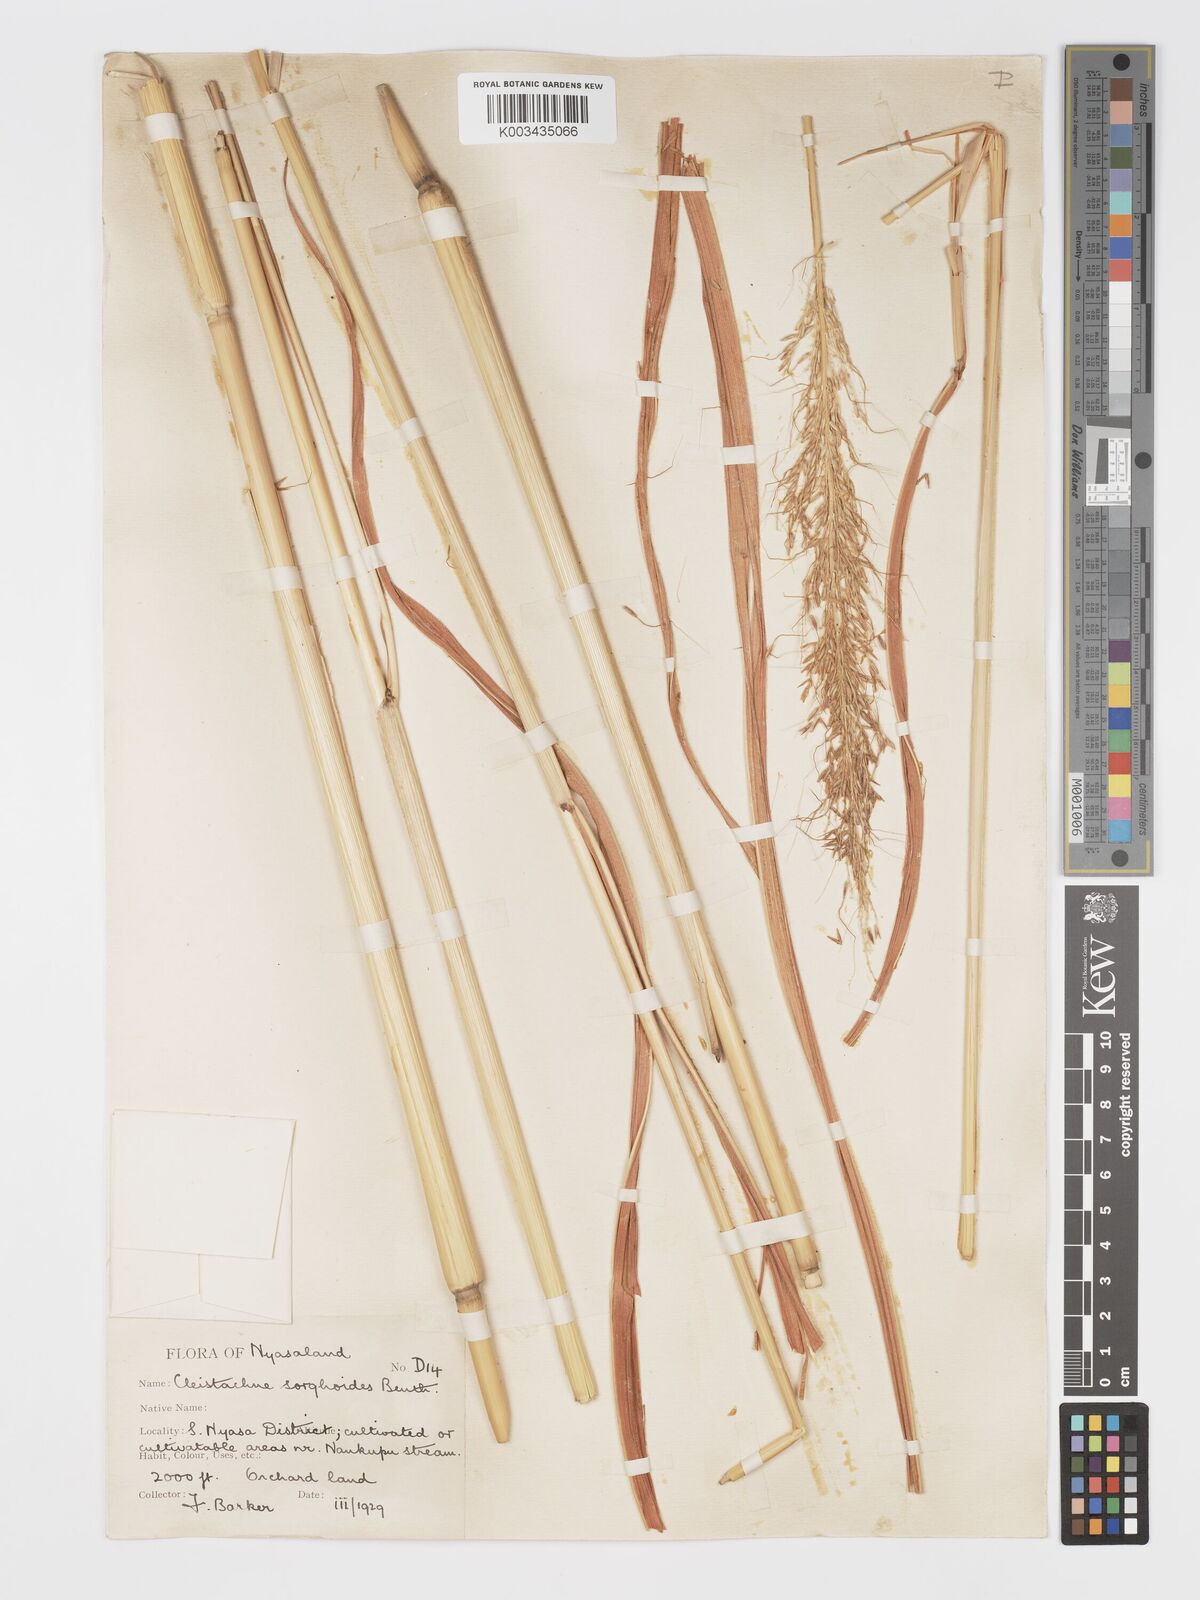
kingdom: Plantae
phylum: Tracheophyta
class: Liliopsida
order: Poales
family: Poaceae
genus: Cleistachne
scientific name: Cleistachne sorghoides
